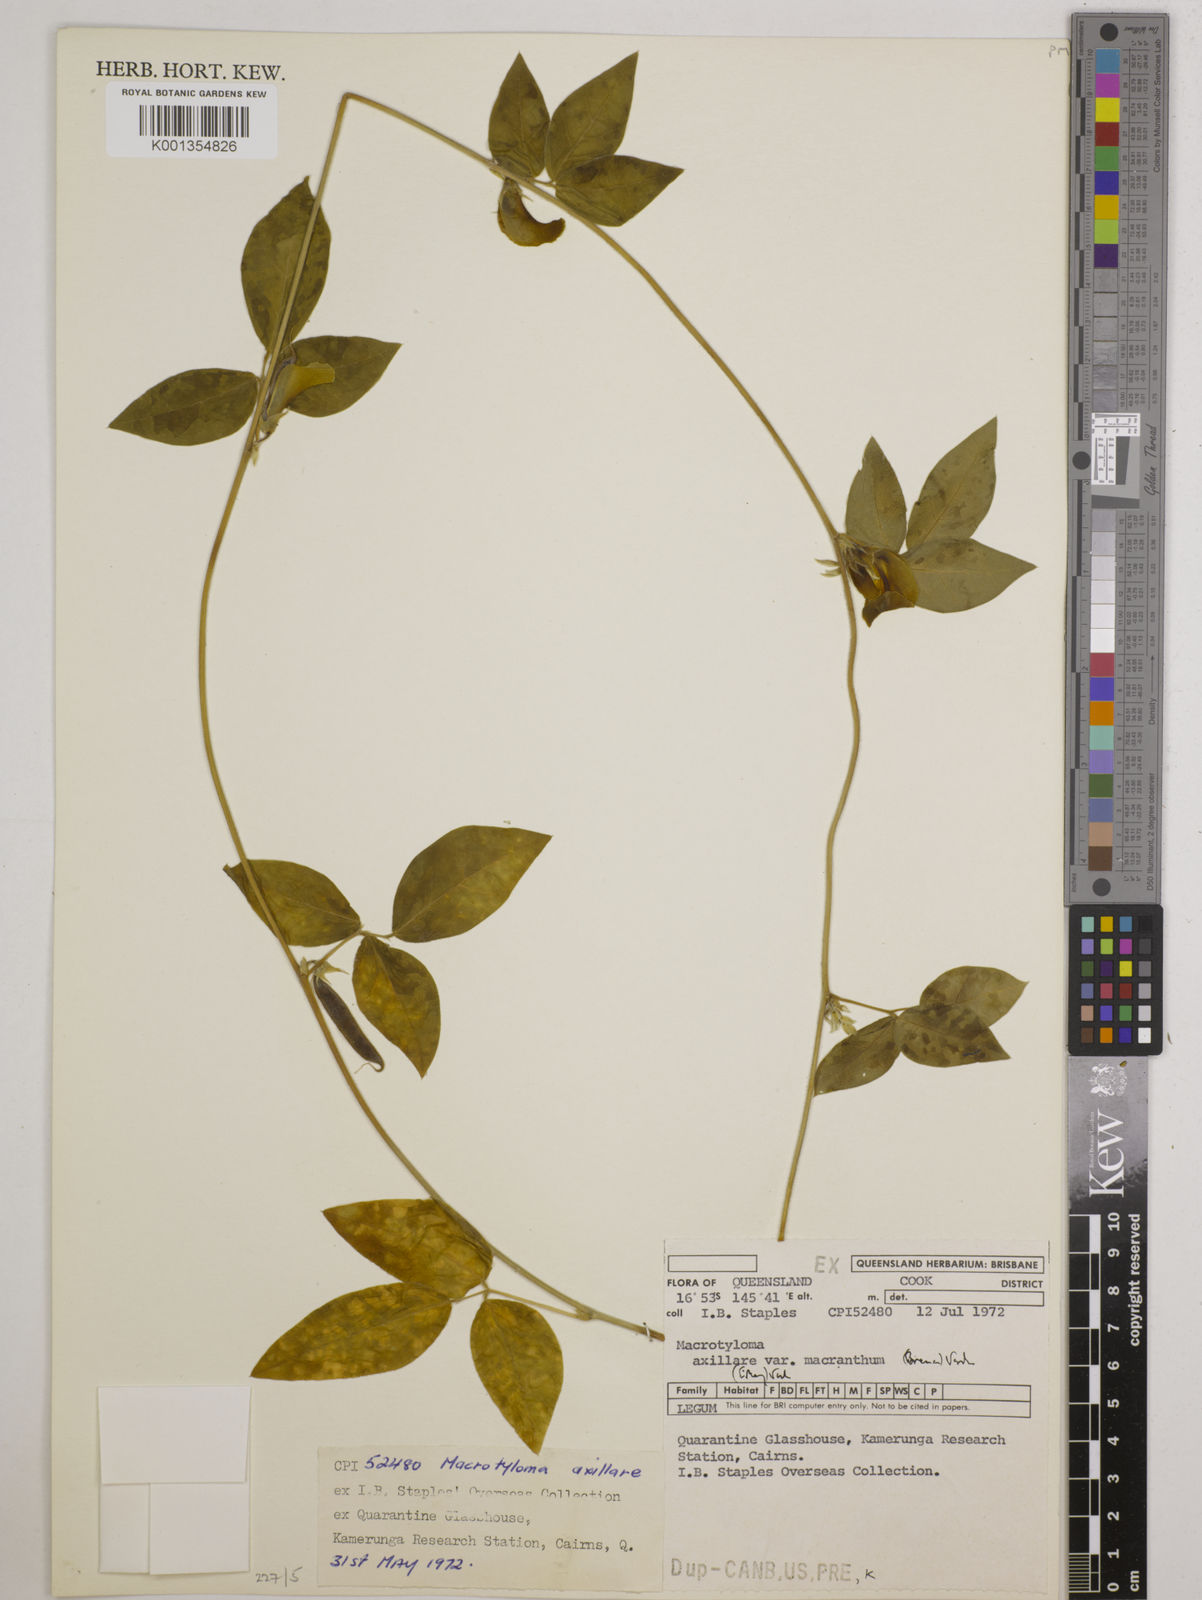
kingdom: Plantae
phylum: Tracheophyta
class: Magnoliopsida
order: Fabales
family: Fabaceae
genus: Macrotyloma
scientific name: Macrotyloma
